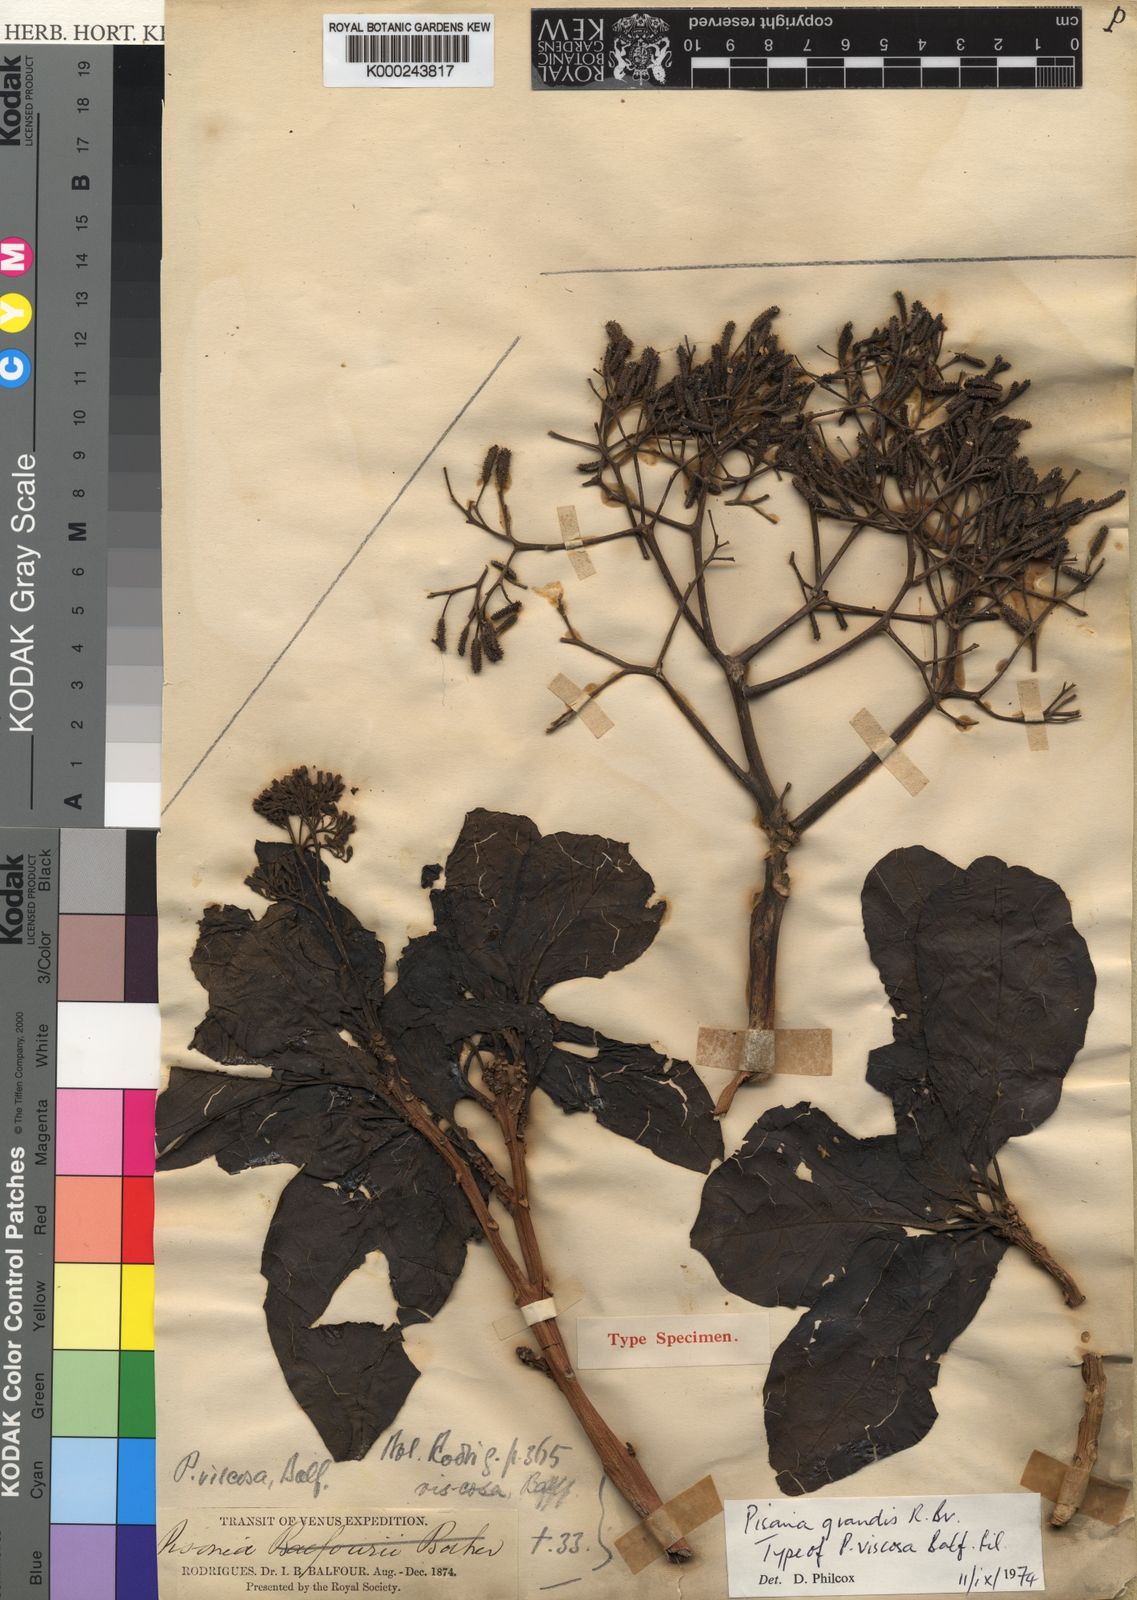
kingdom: Plantae
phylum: Tracheophyta
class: Magnoliopsida
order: Caryophyllales
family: Nyctaginaceae
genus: Pisonia
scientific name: Pisonia
